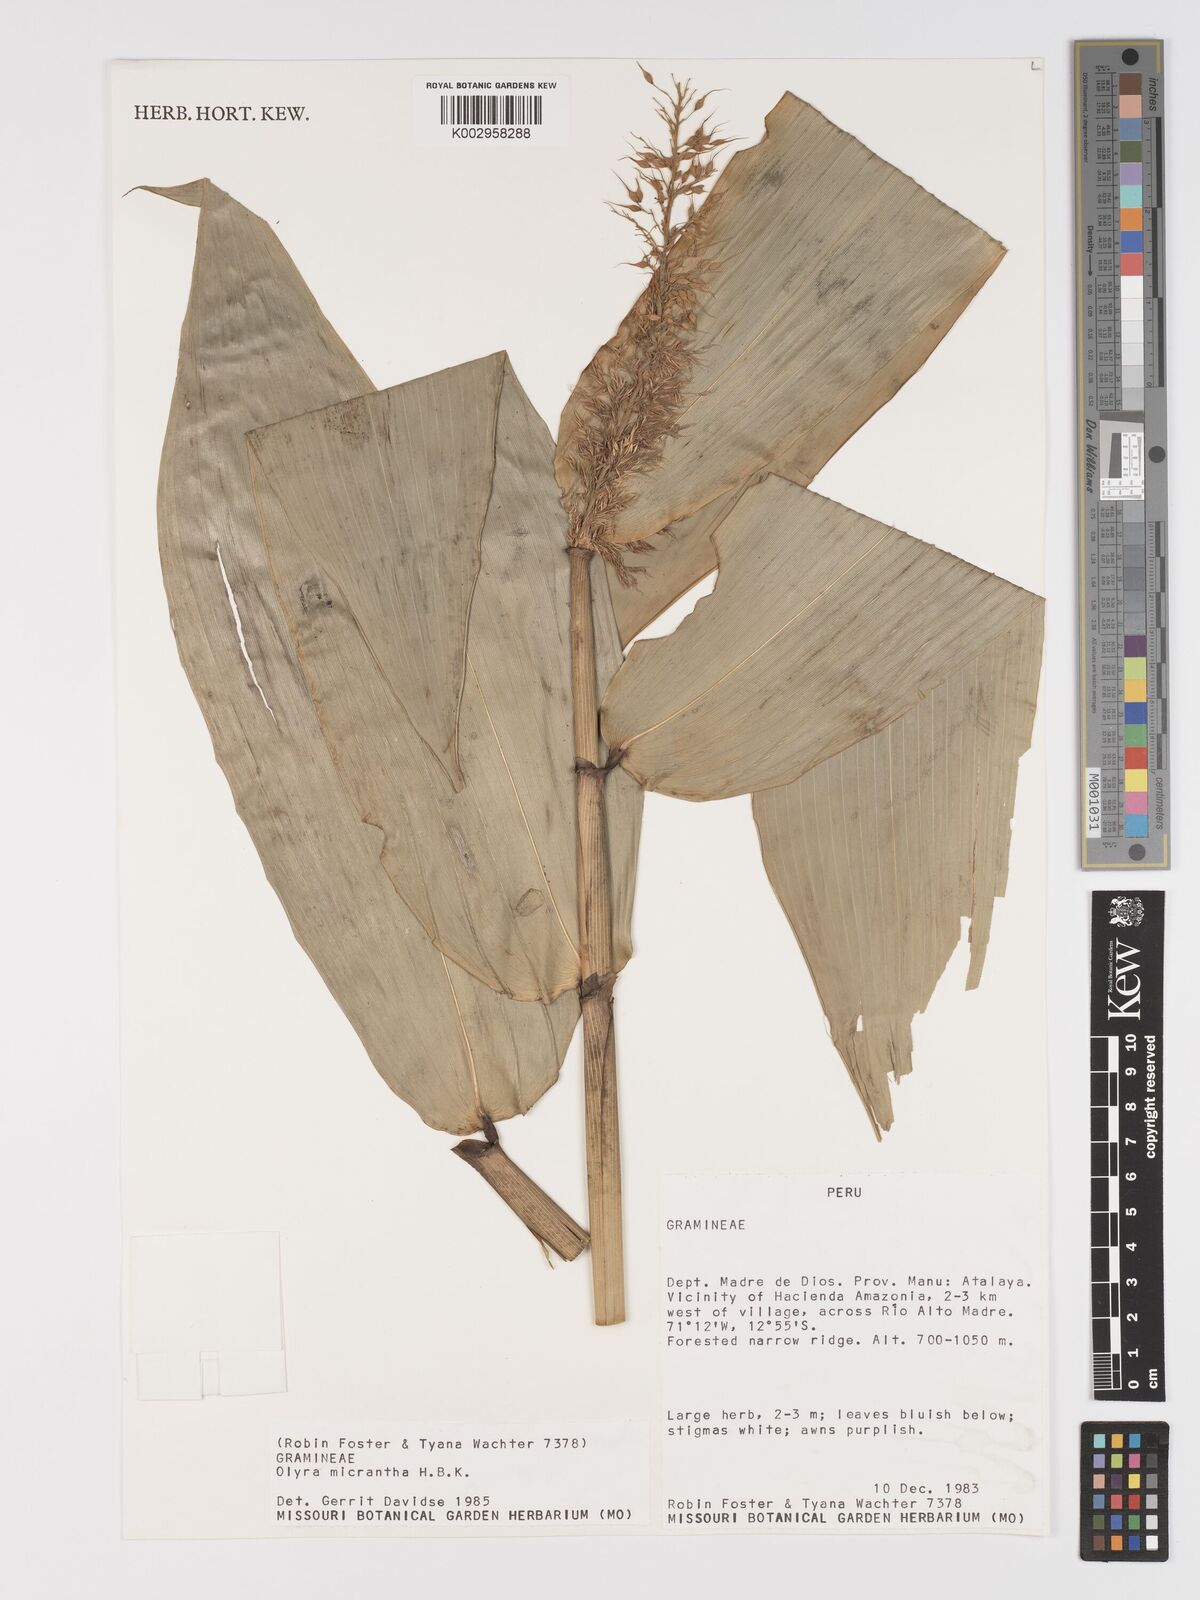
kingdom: Plantae
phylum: Tracheophyta
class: Liliopsida
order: Poales
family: Poaceae
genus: Taquara
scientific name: Taquara micrantha
